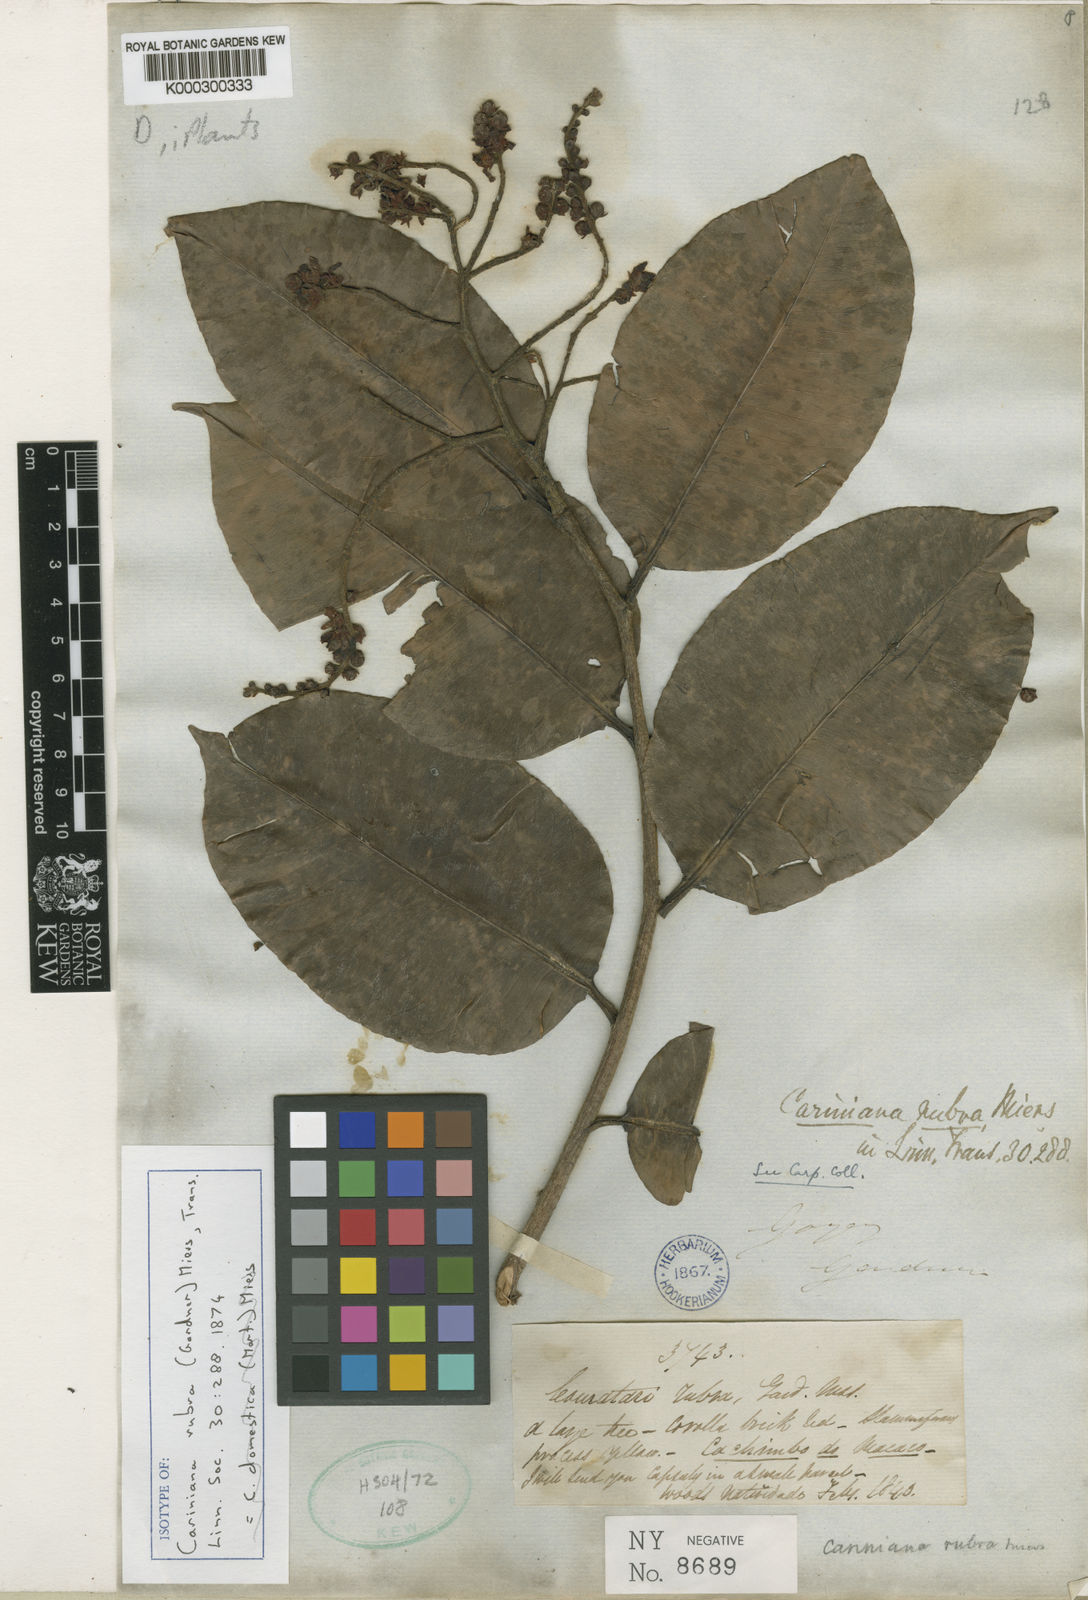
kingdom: Plantae
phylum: Tracheophyta
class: Magnoliopsida
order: Ericales
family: Lecythidaceae
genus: Cariniana
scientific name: Cariniana rubra
